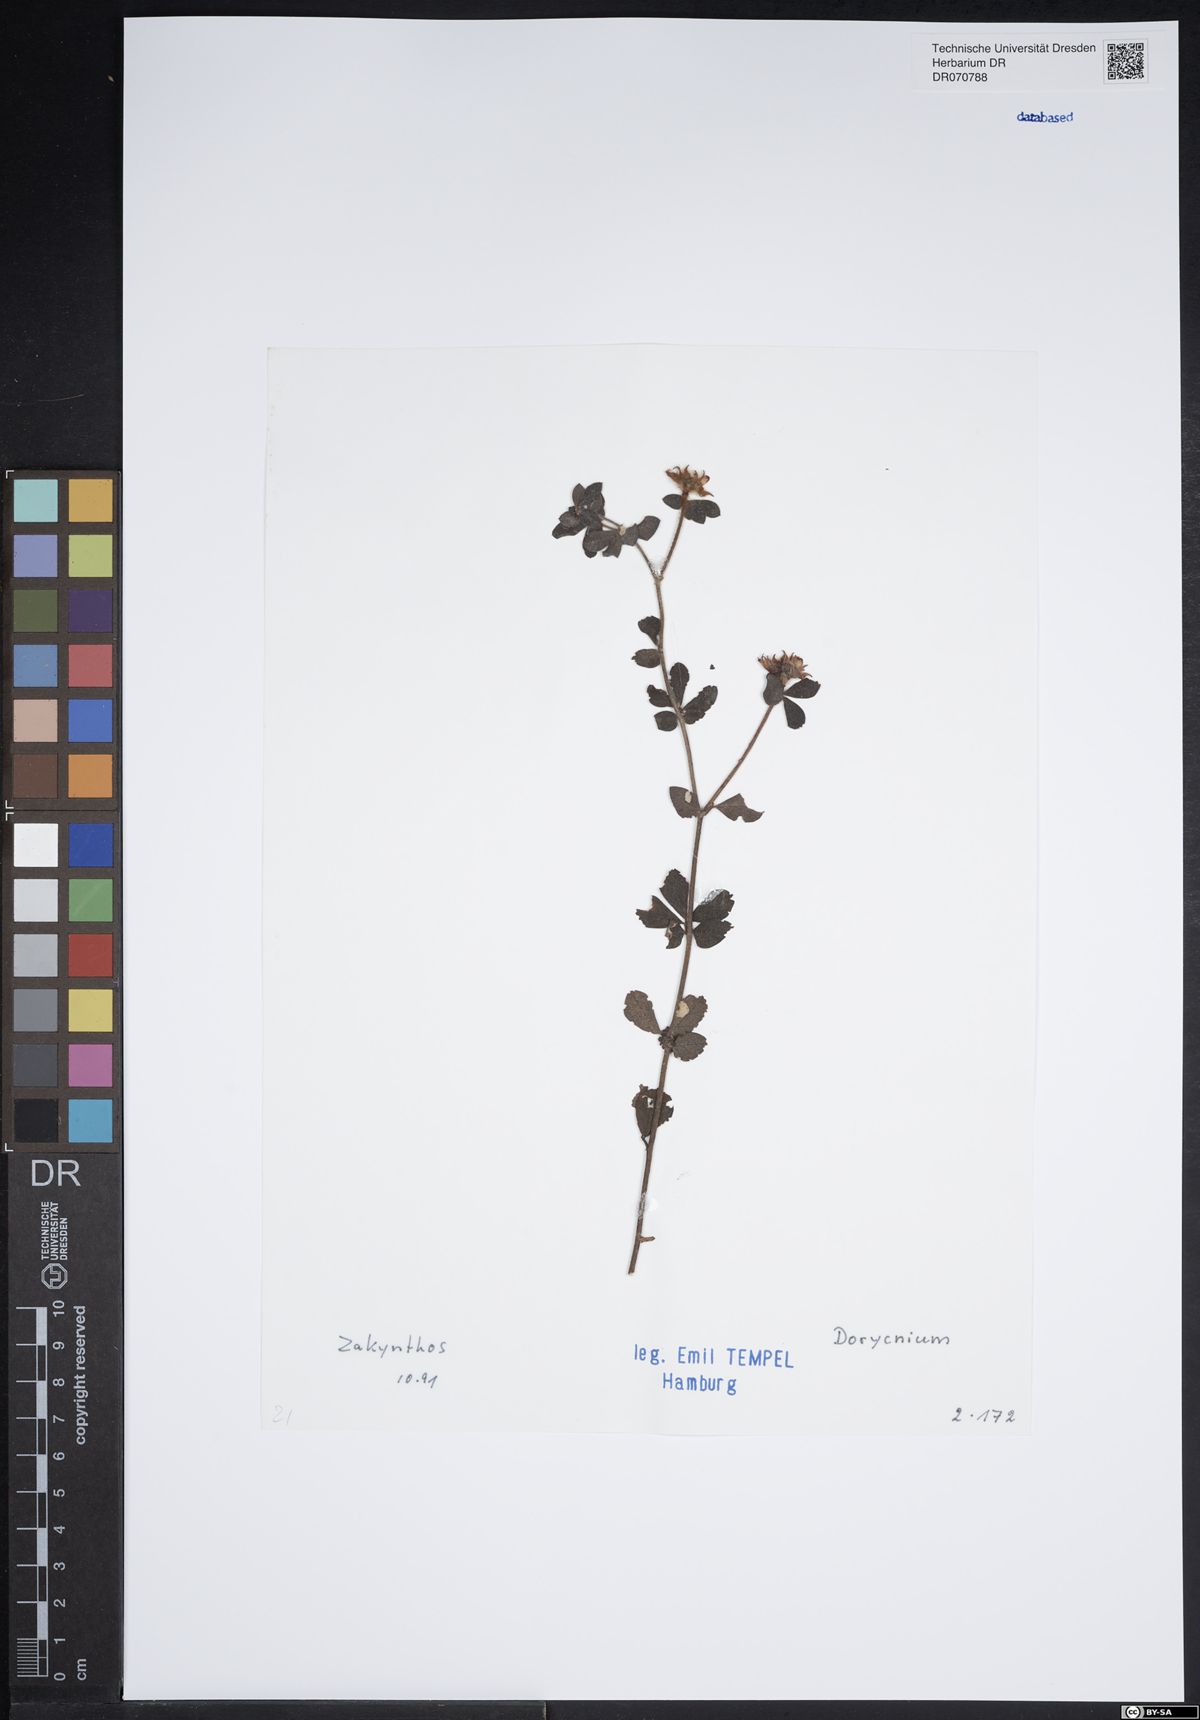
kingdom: Plantae
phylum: Tracheophyta
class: Magnoliopsida
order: Fabales
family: Fabaceae
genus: Lotus
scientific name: Lotus
